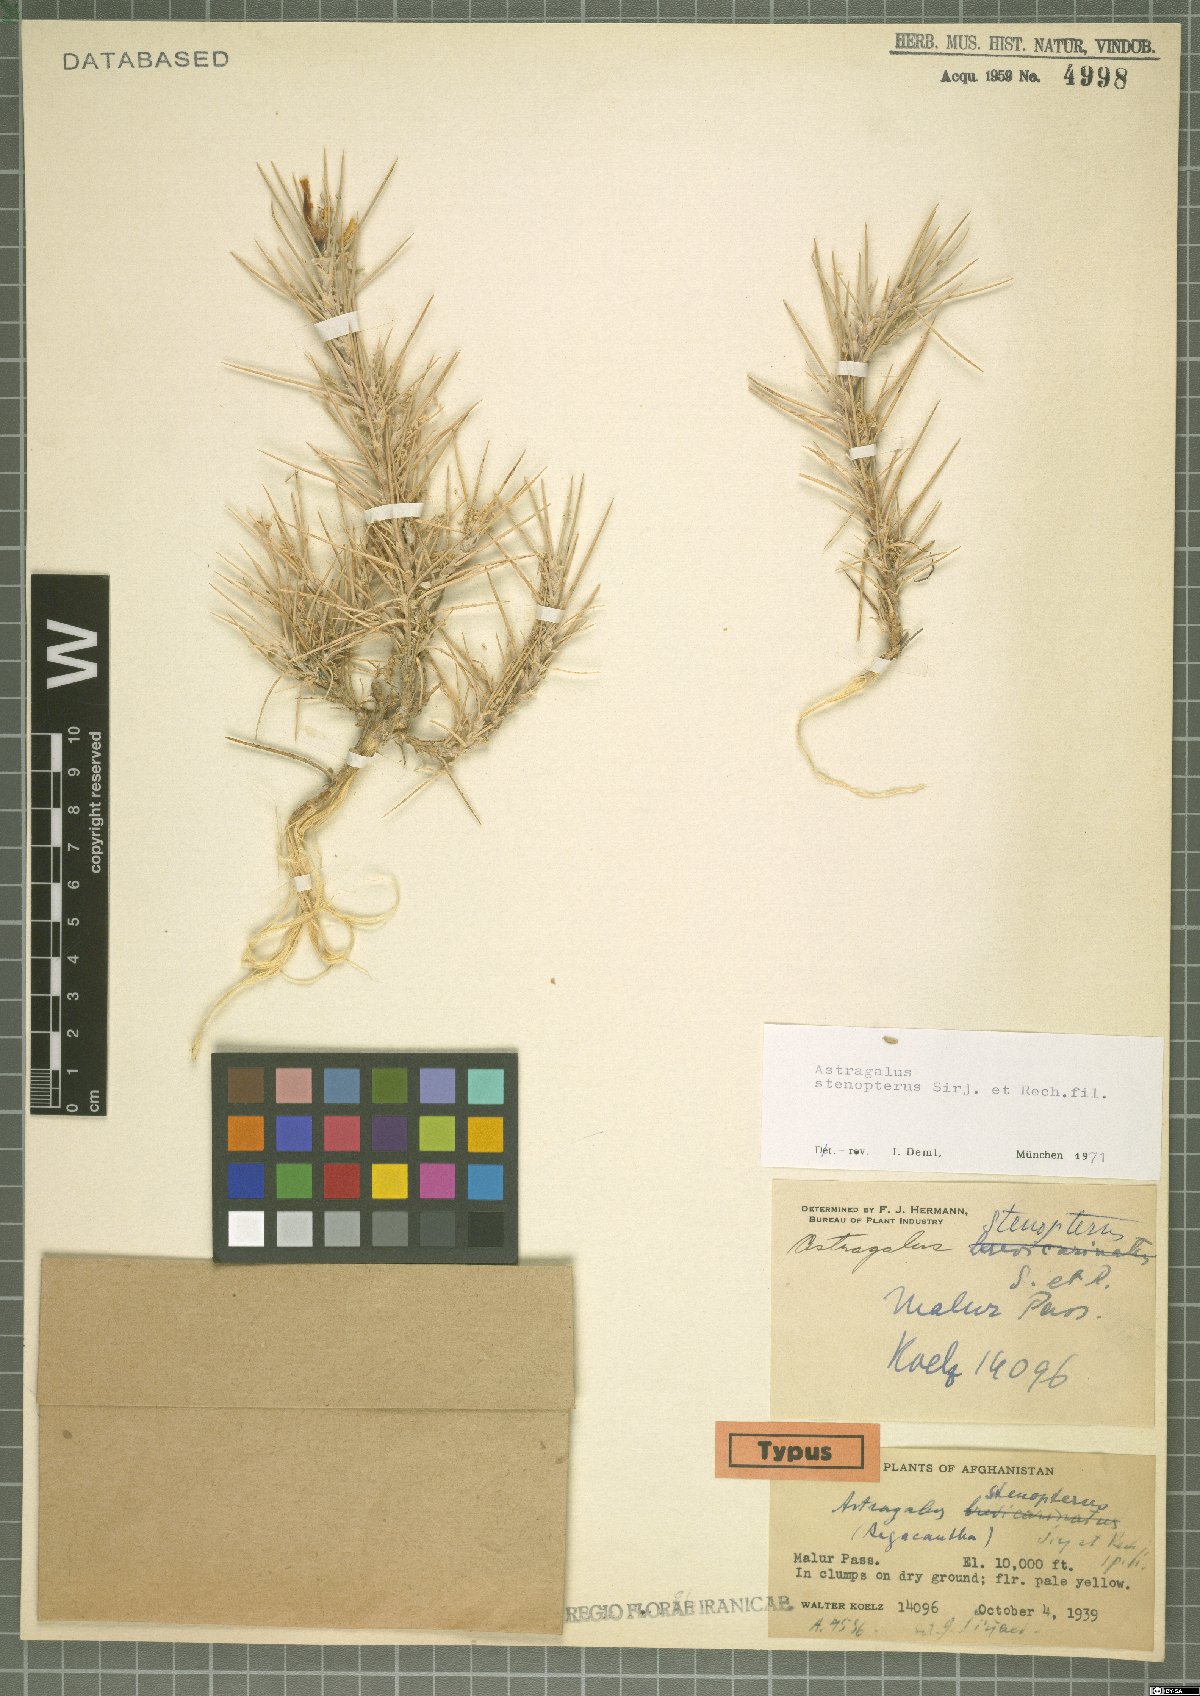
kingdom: Plantae
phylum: Tracheophyta
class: Magnoliopsida
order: Fabales
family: Fabaceae
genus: Astragalus
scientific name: Astragalus stenopterus
